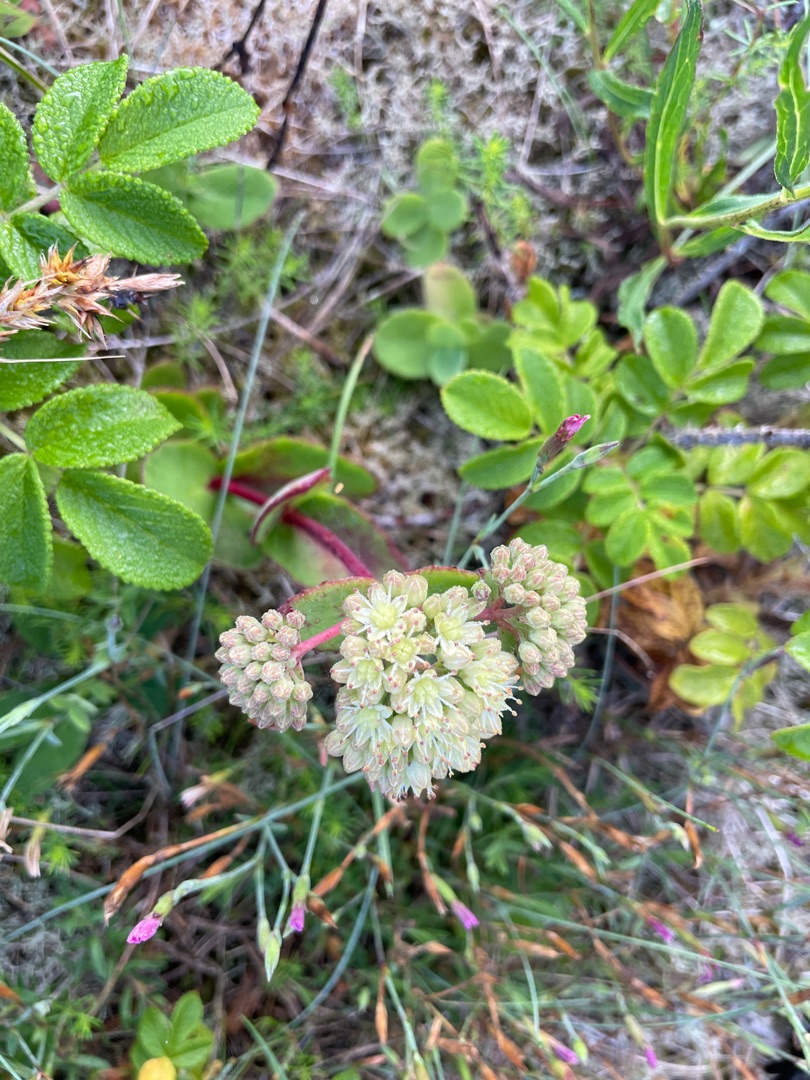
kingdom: Plantae
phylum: Tracheophyta
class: Magnoliopsida
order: Saxifragales
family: Crassulaceae
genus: Hylotelephium
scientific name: Hylotelephium maximum
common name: Almindelig sankthansurt
